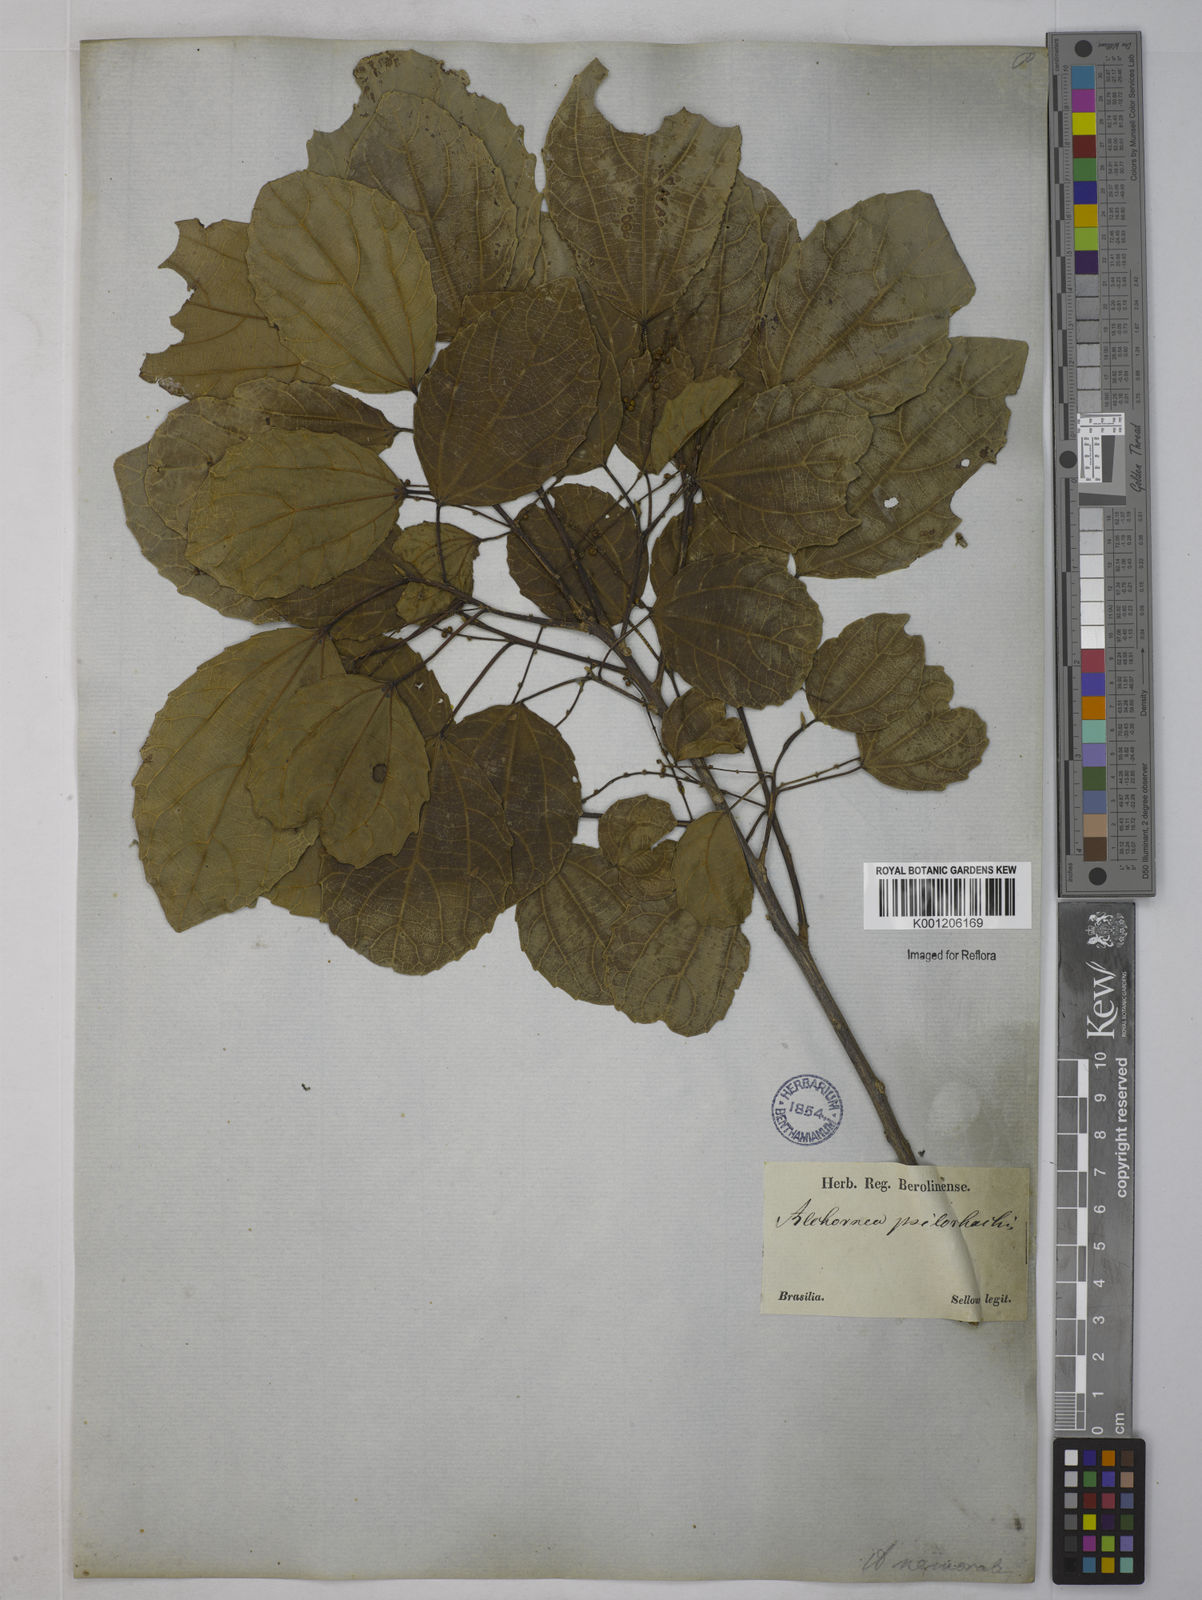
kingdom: Plantae
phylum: Tracheophyta
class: Magnoliopsida
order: Malpighiales
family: Euphorbiaceae
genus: Alchornea
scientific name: Alchornea triplinervia
